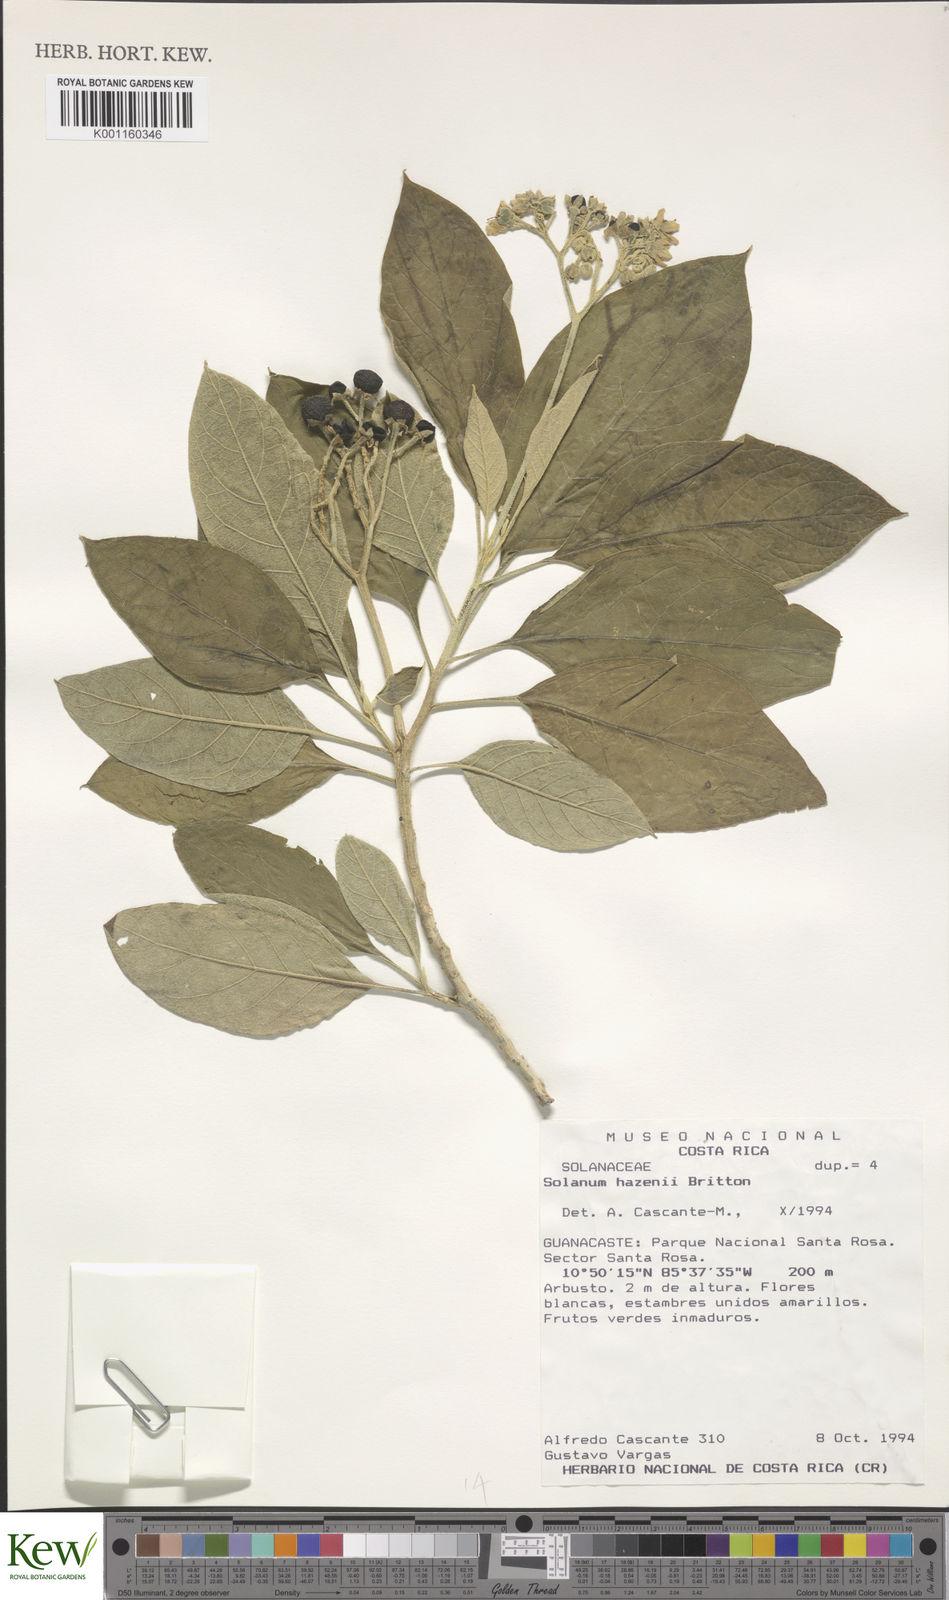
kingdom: Plantae
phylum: Tracheophyta
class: Magnoliopsida
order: Solanales
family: Solanaceae
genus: Solanum
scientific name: Solanum hazenii
